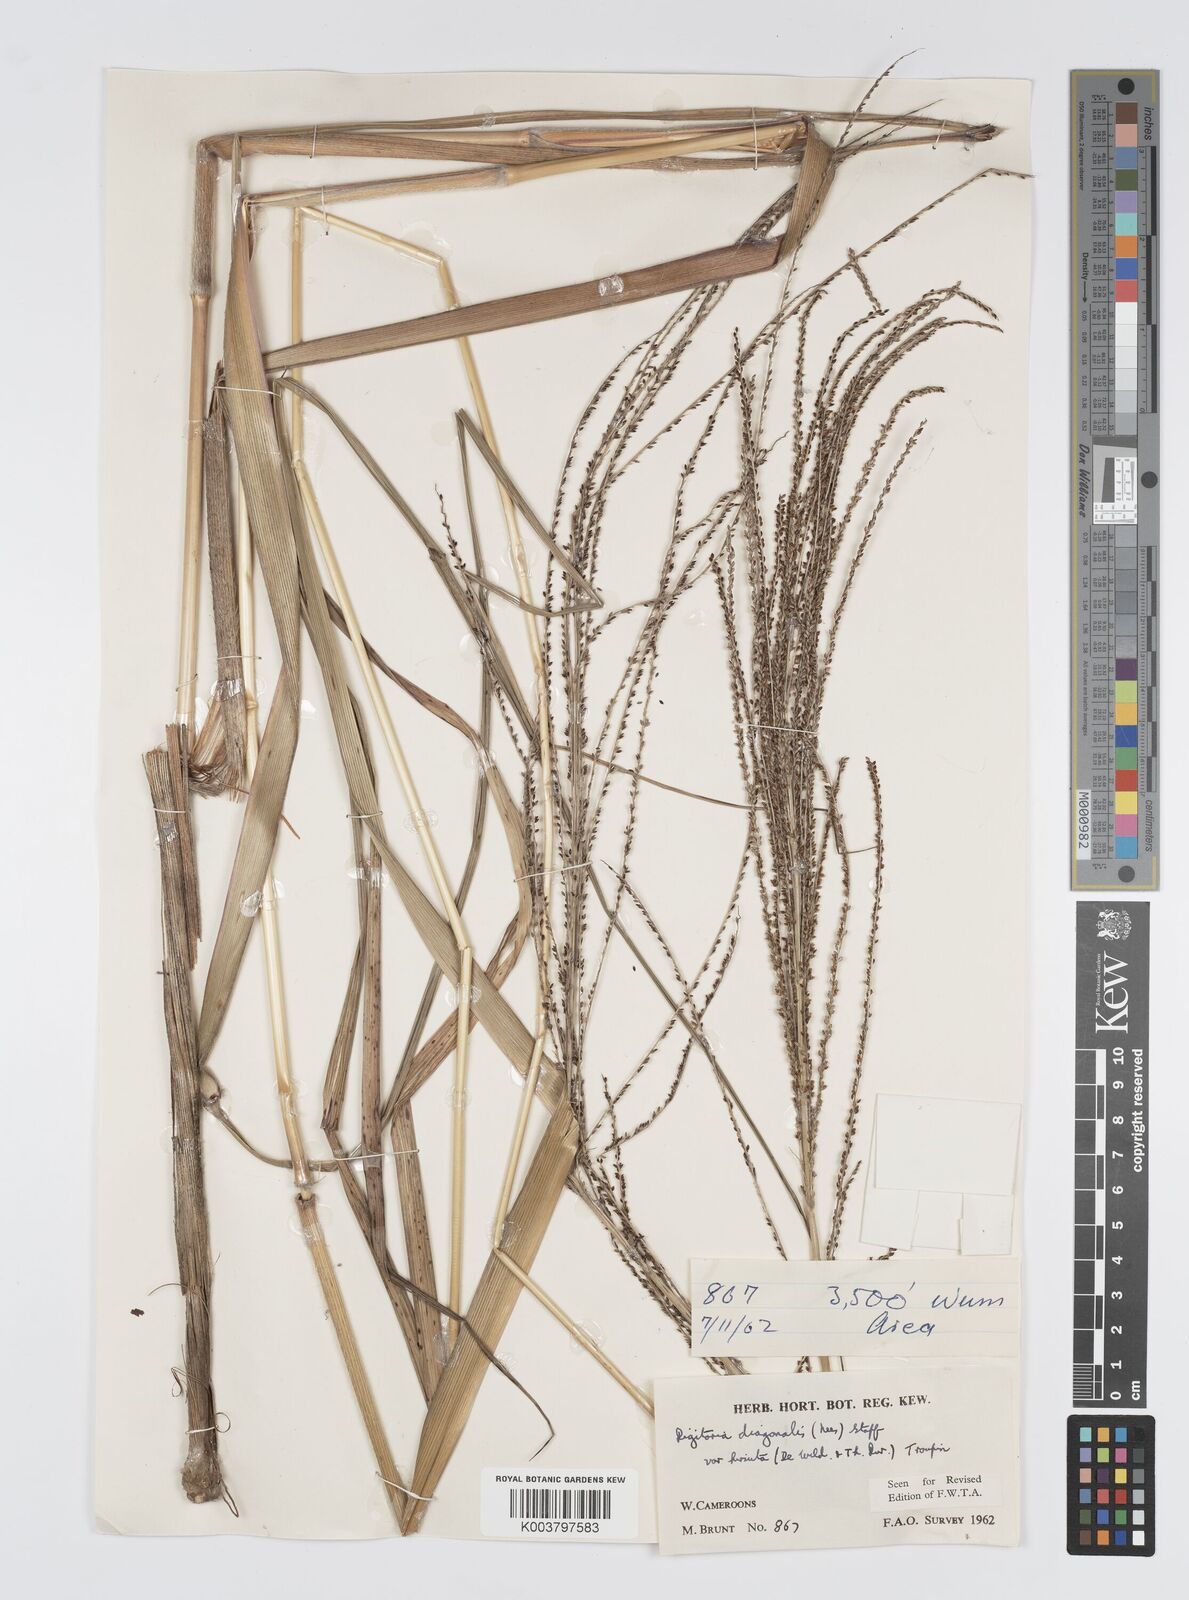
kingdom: Plantae
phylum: Tracheophyta
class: Liliopsida
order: Poales
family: Poaceae
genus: Digitaria
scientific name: Digitaria diagonalis
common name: Brown-seed finger grass
